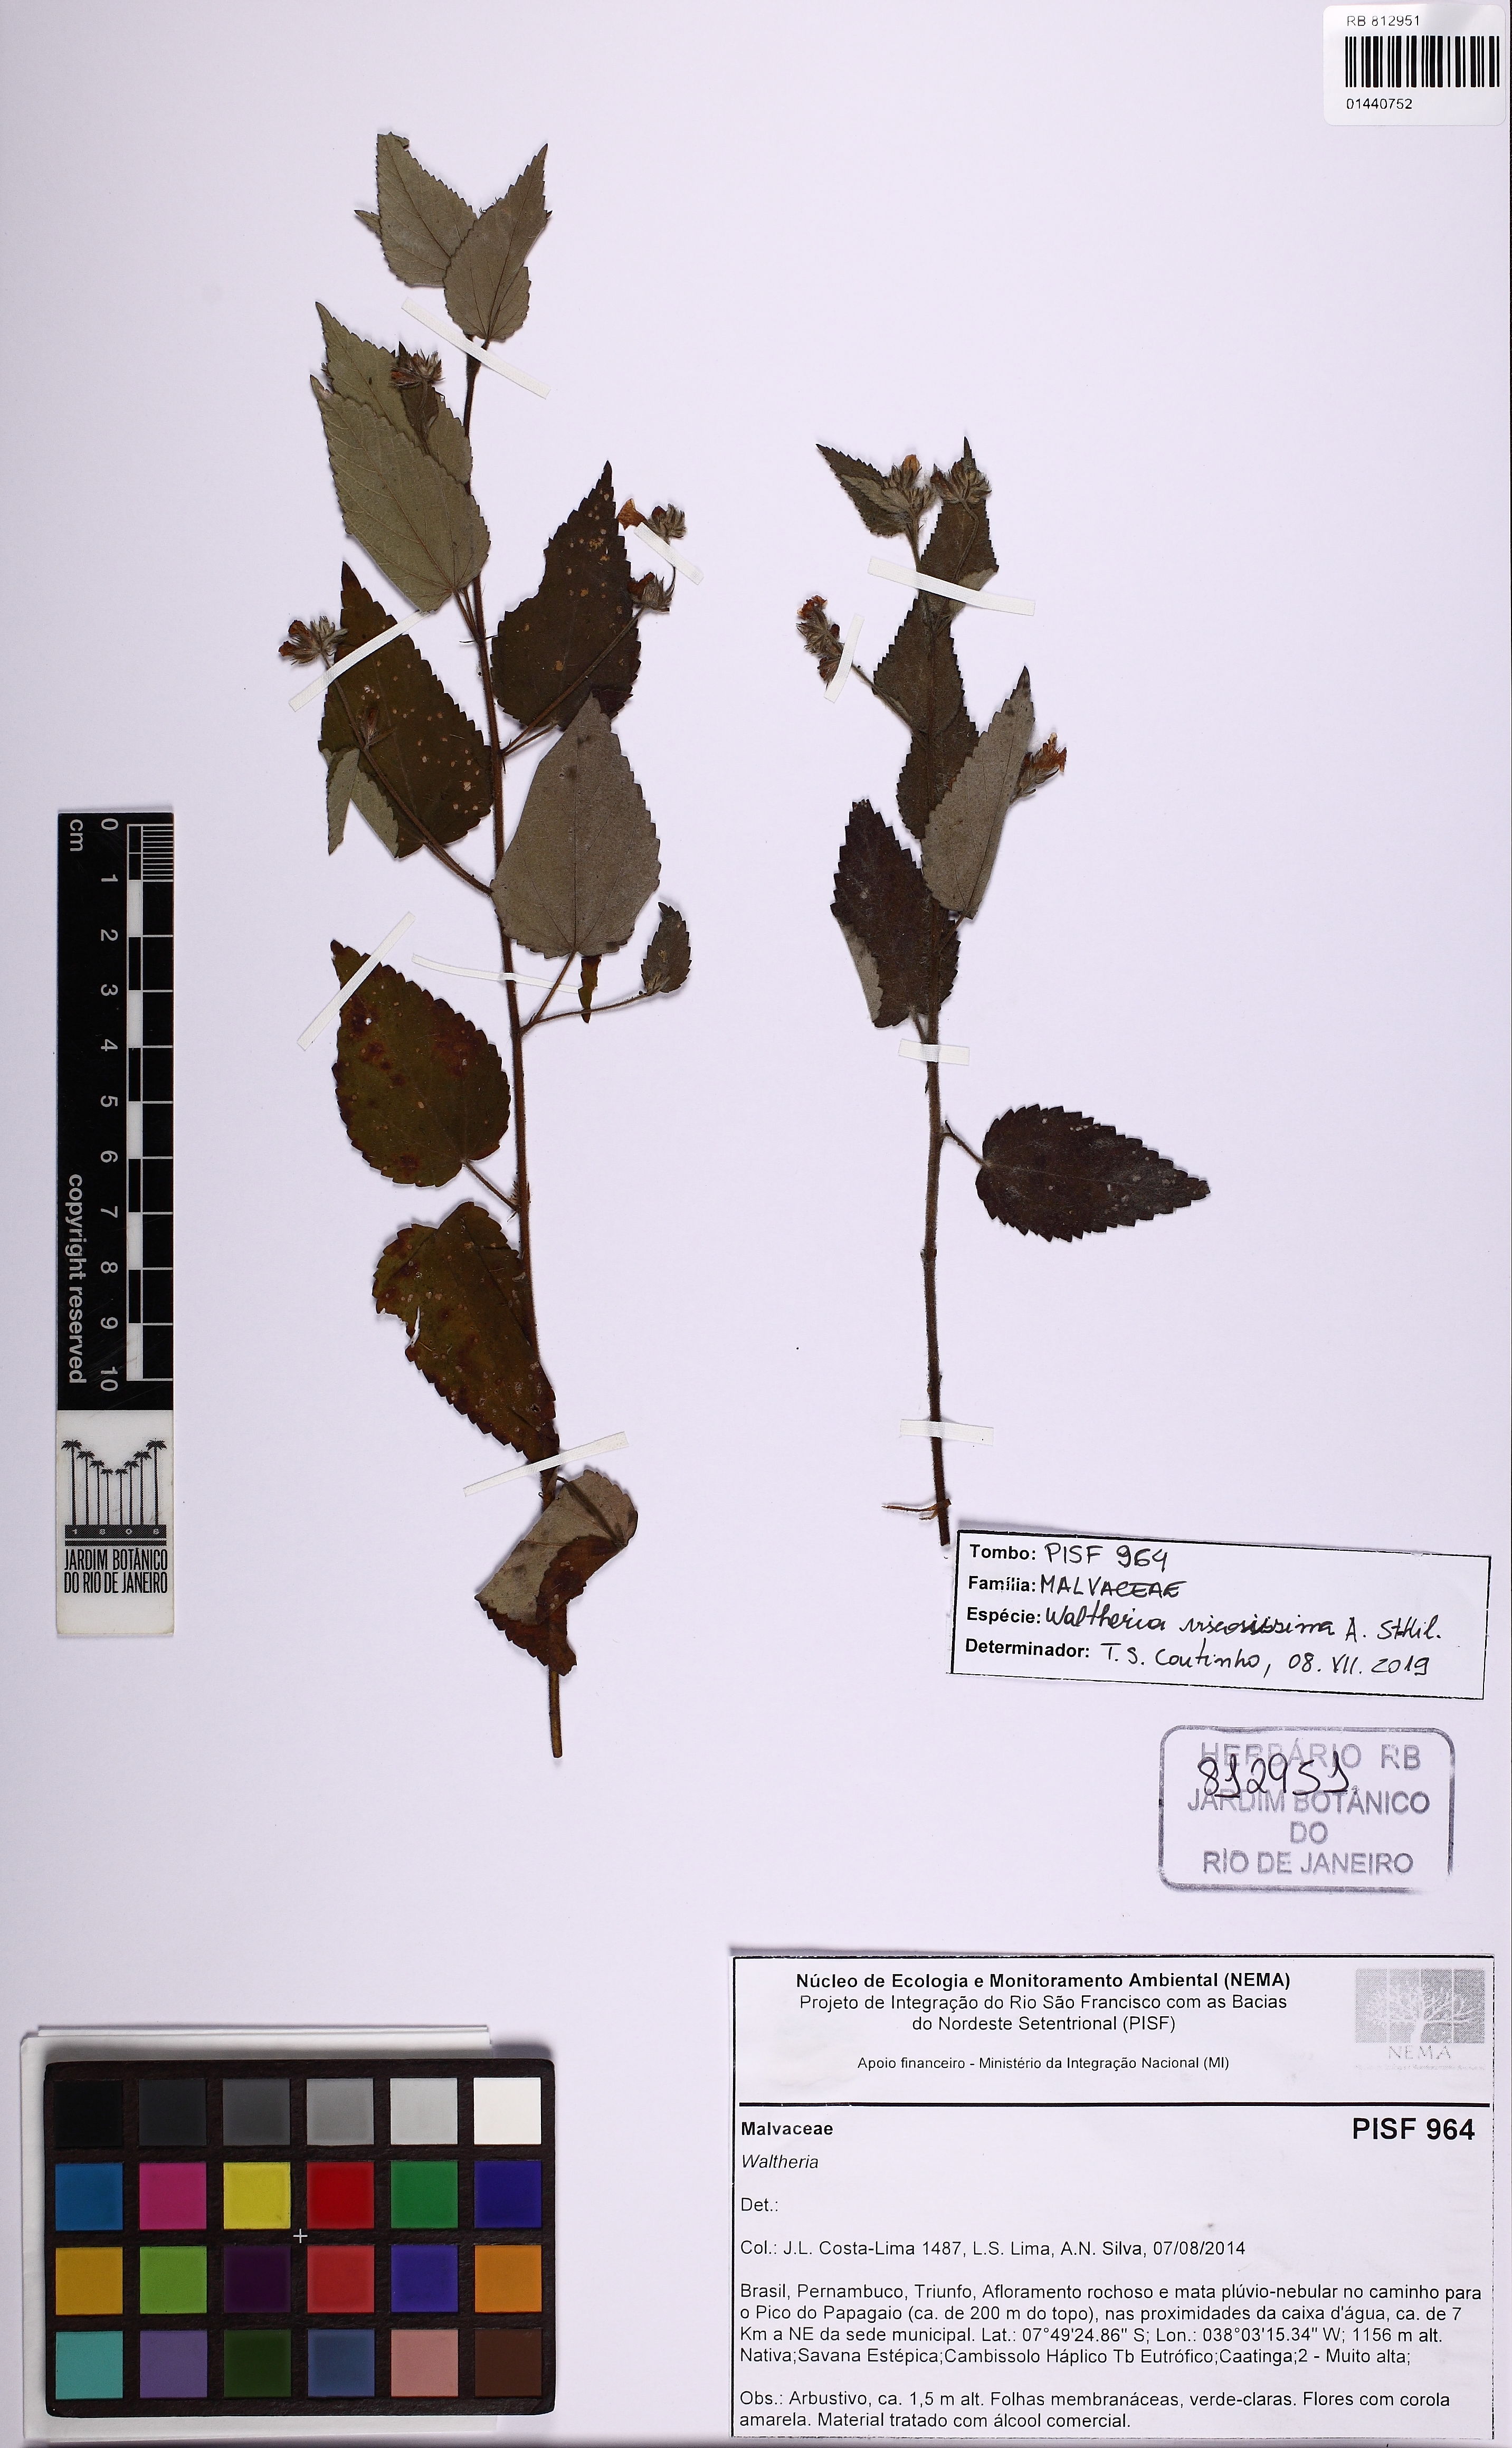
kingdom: Plantae
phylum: Tracheophyta
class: Magnoliopsida
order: Malvales
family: Malvaceae
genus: Waltheria
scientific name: Waltheria viscosissima
